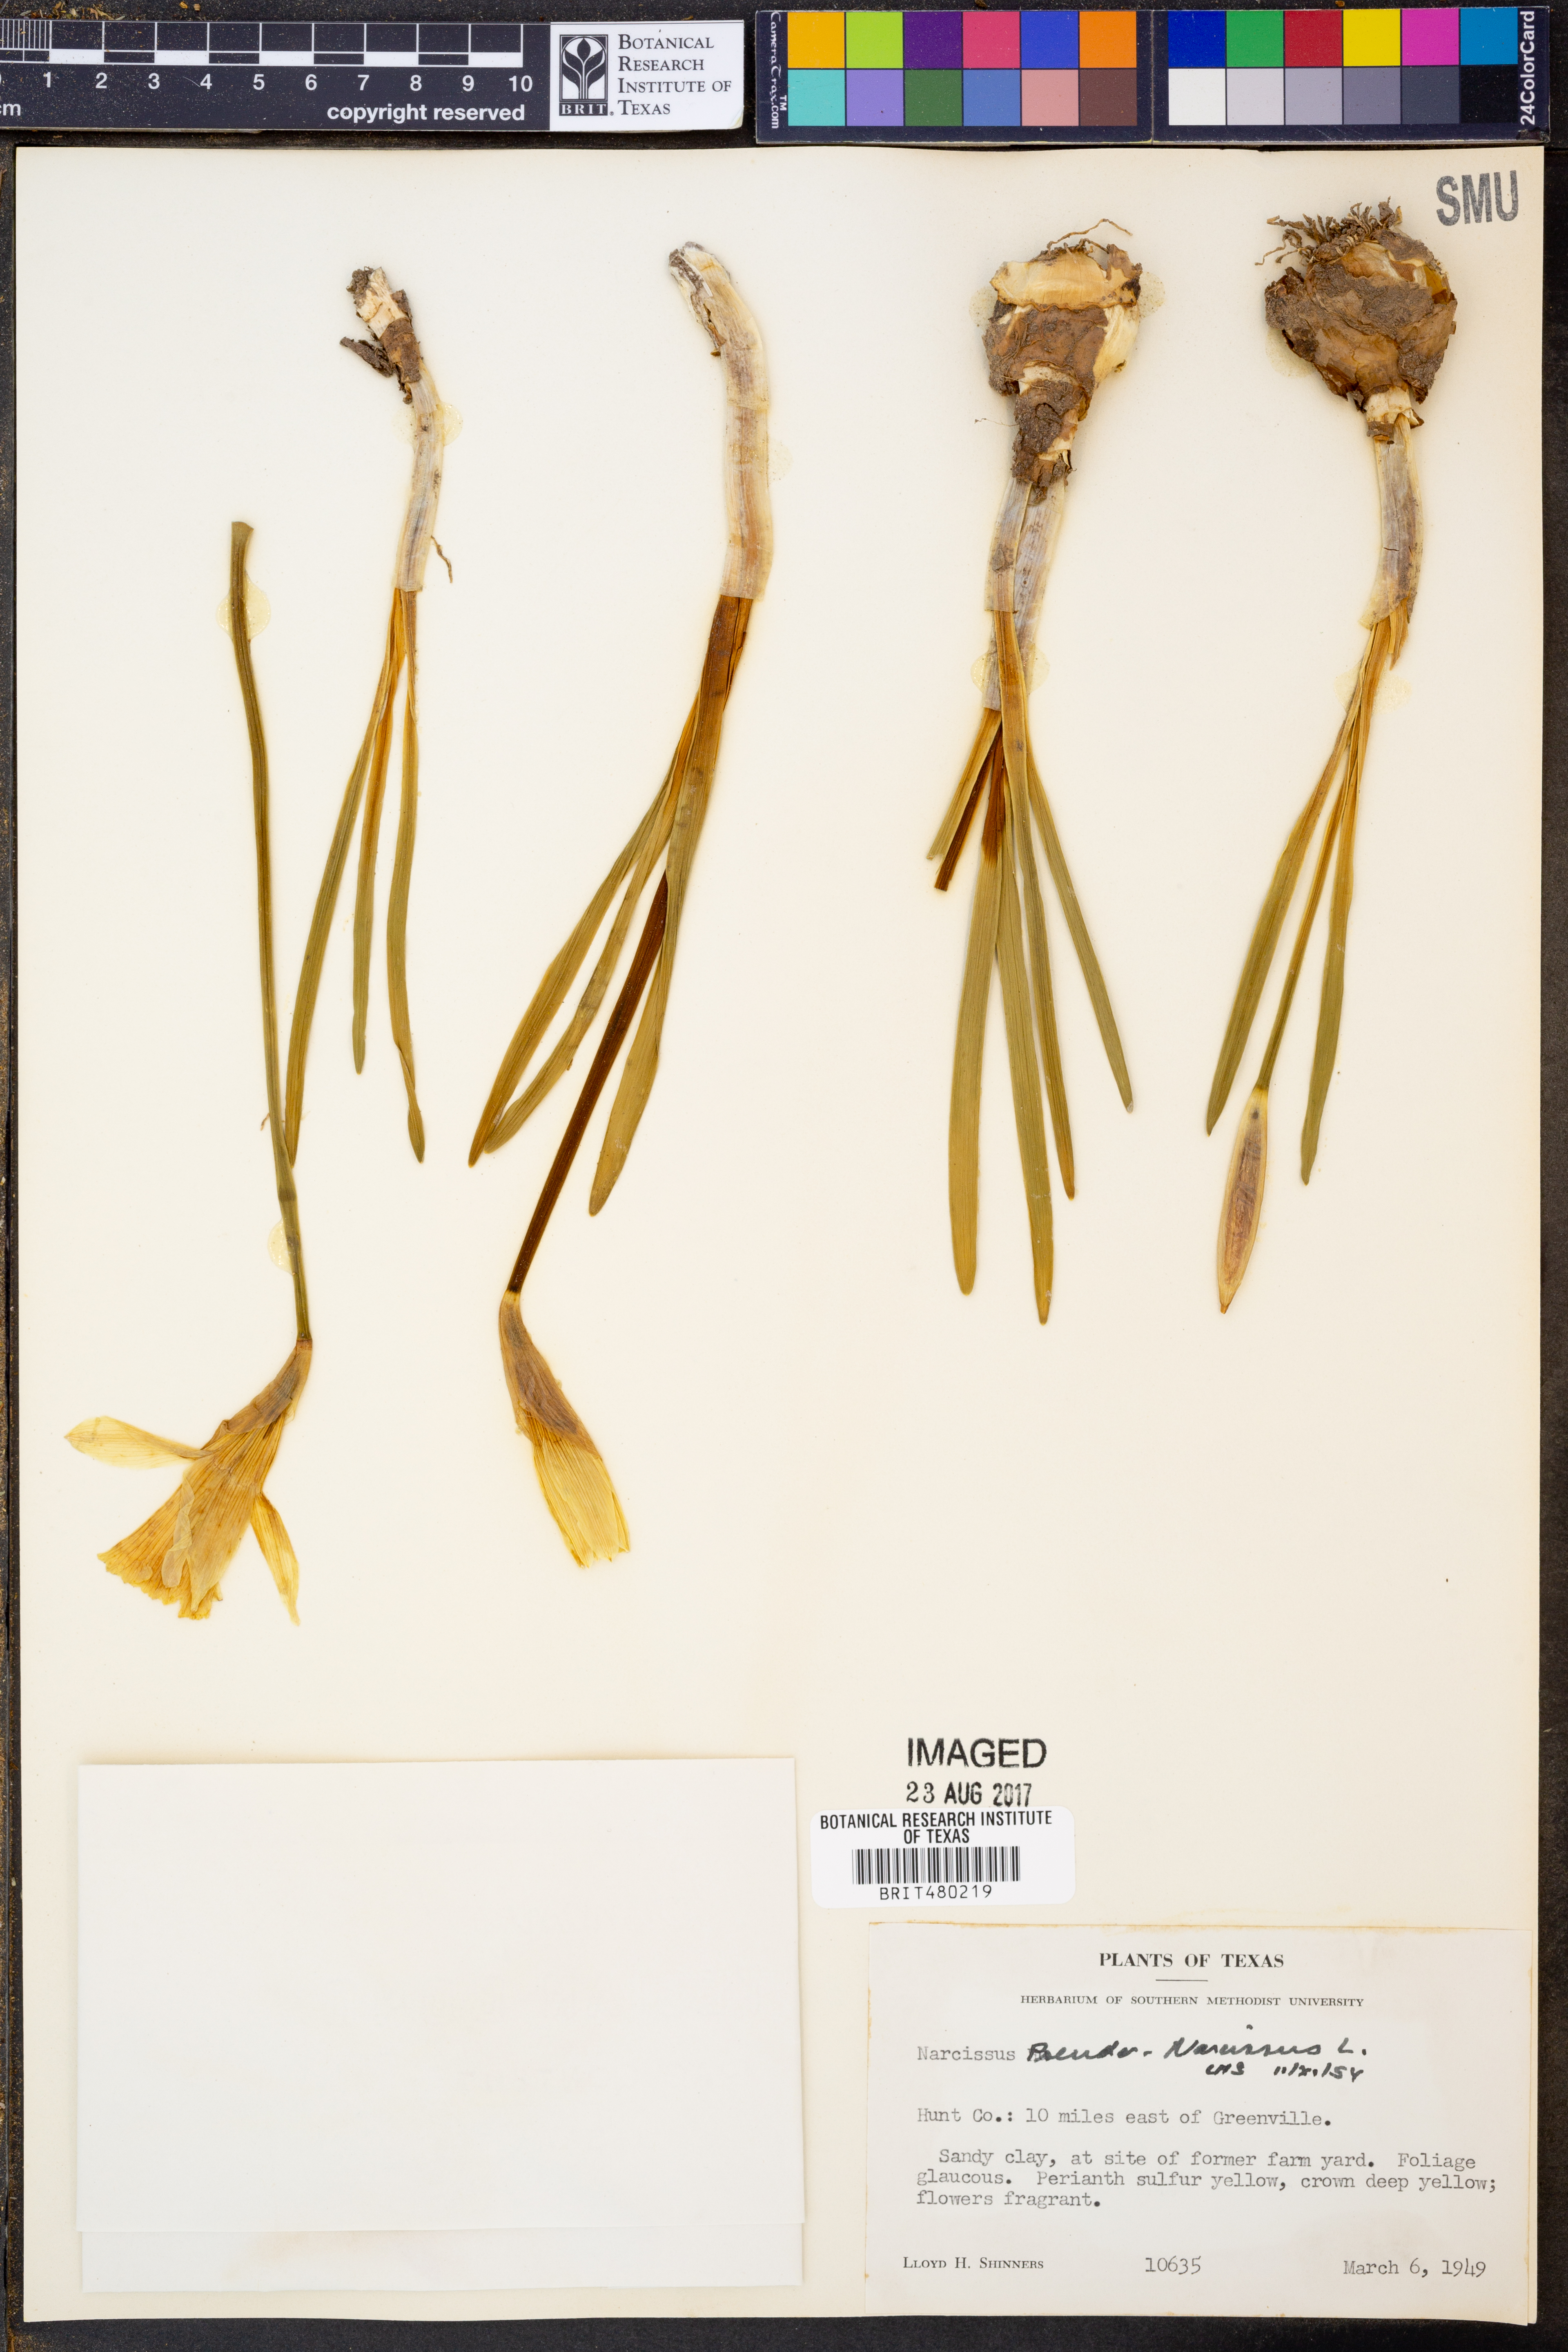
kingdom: Plantae
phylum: Tracheophyta
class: Liliopsida
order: Asparagales
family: Amaryllidaceae
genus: Narcissus
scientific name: Narcissus pseudonarcissus
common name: Daffodil
